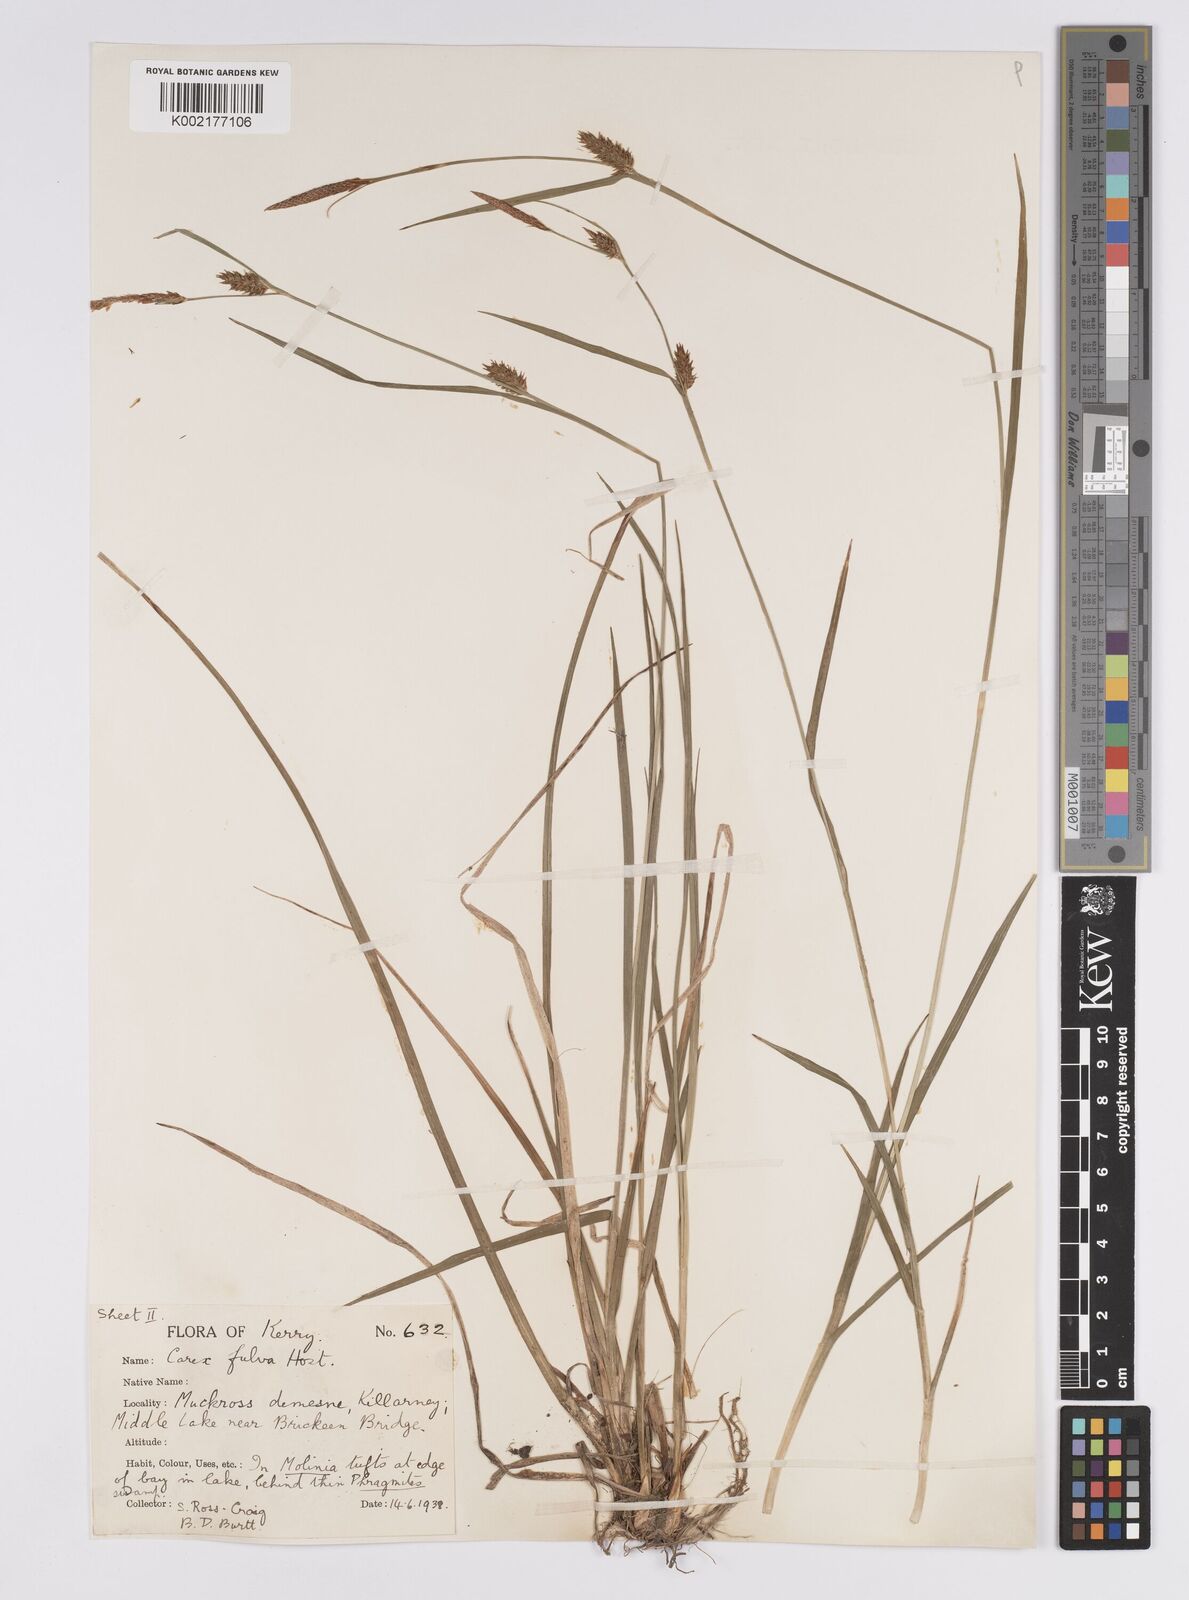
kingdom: Plantae
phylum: Tracheophyta
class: Liliopsida
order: Poales
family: Cyperaceae
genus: Carex
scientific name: Carex hostiana
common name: Tawny sedge
